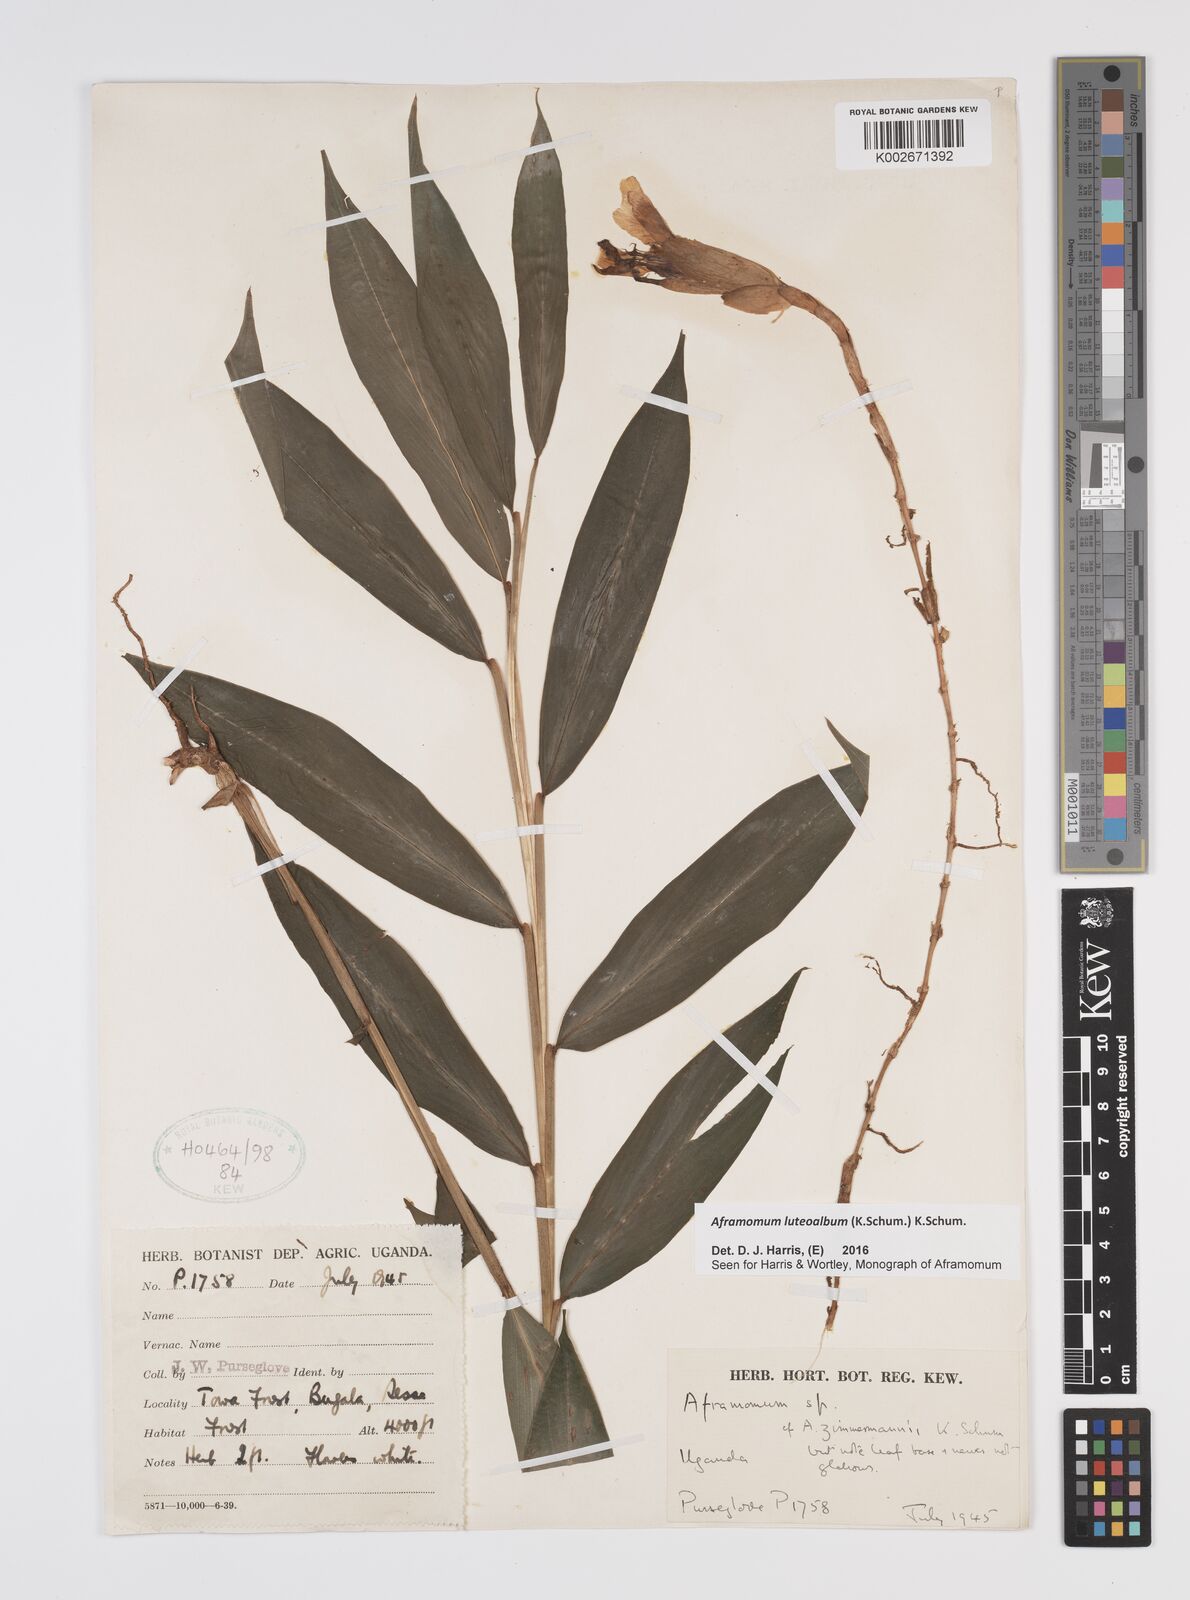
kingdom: Plantae
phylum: Tracheophyta
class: Liliopsida
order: Zingiberales
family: Zingiberaceae
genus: Aframomum
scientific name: Aframomum luteoalbum
